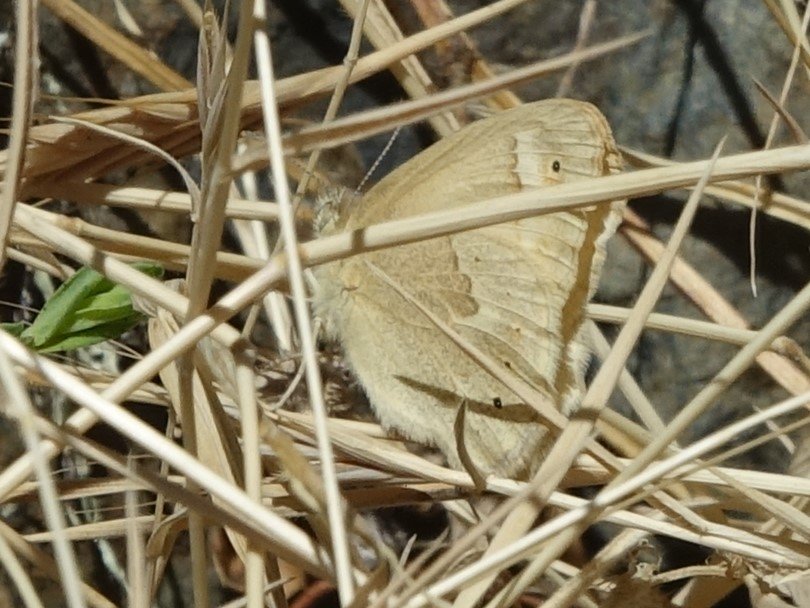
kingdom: Animalia
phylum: Arthropoda
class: Insecta
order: Lepidoptera
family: Nymphalidae
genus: Coenonympha
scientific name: Coenonympha tullia
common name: Large Heath
